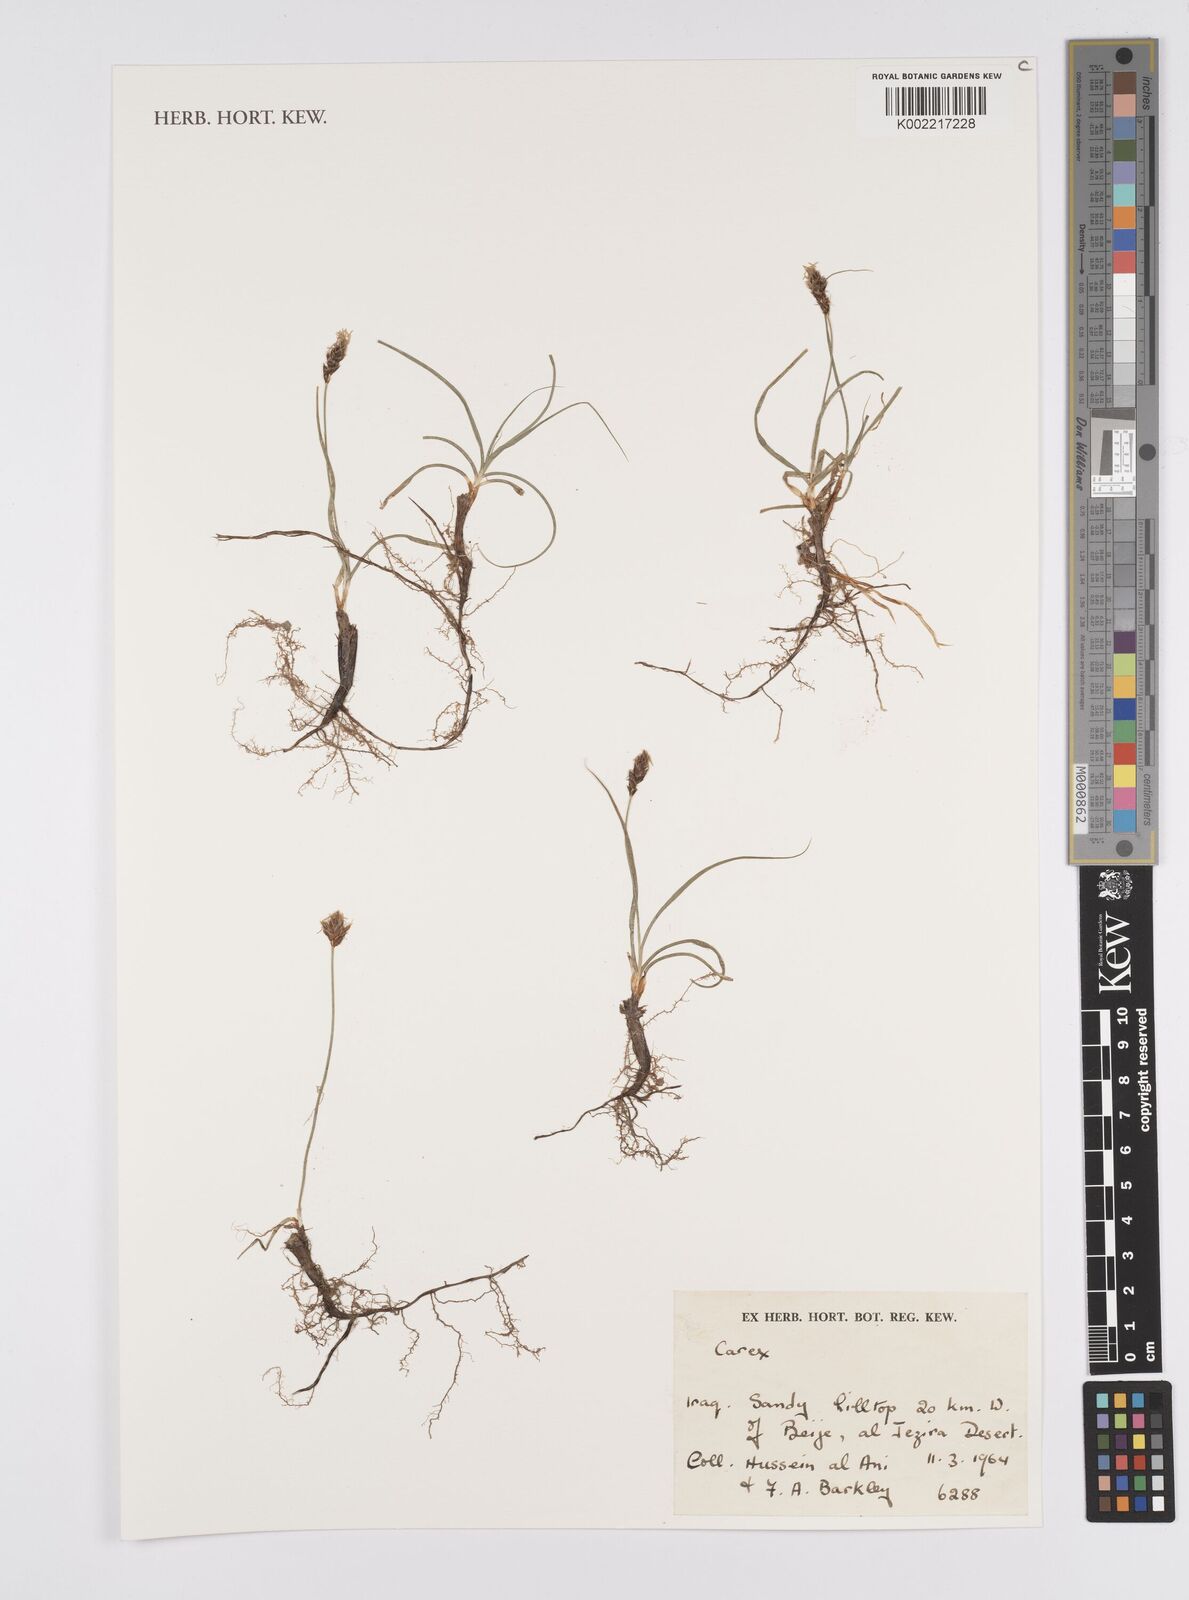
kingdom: Plantae
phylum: Tracheophyta
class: Liliopsida
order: Poales
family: Cyperaceae
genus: Carex
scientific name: Carex
